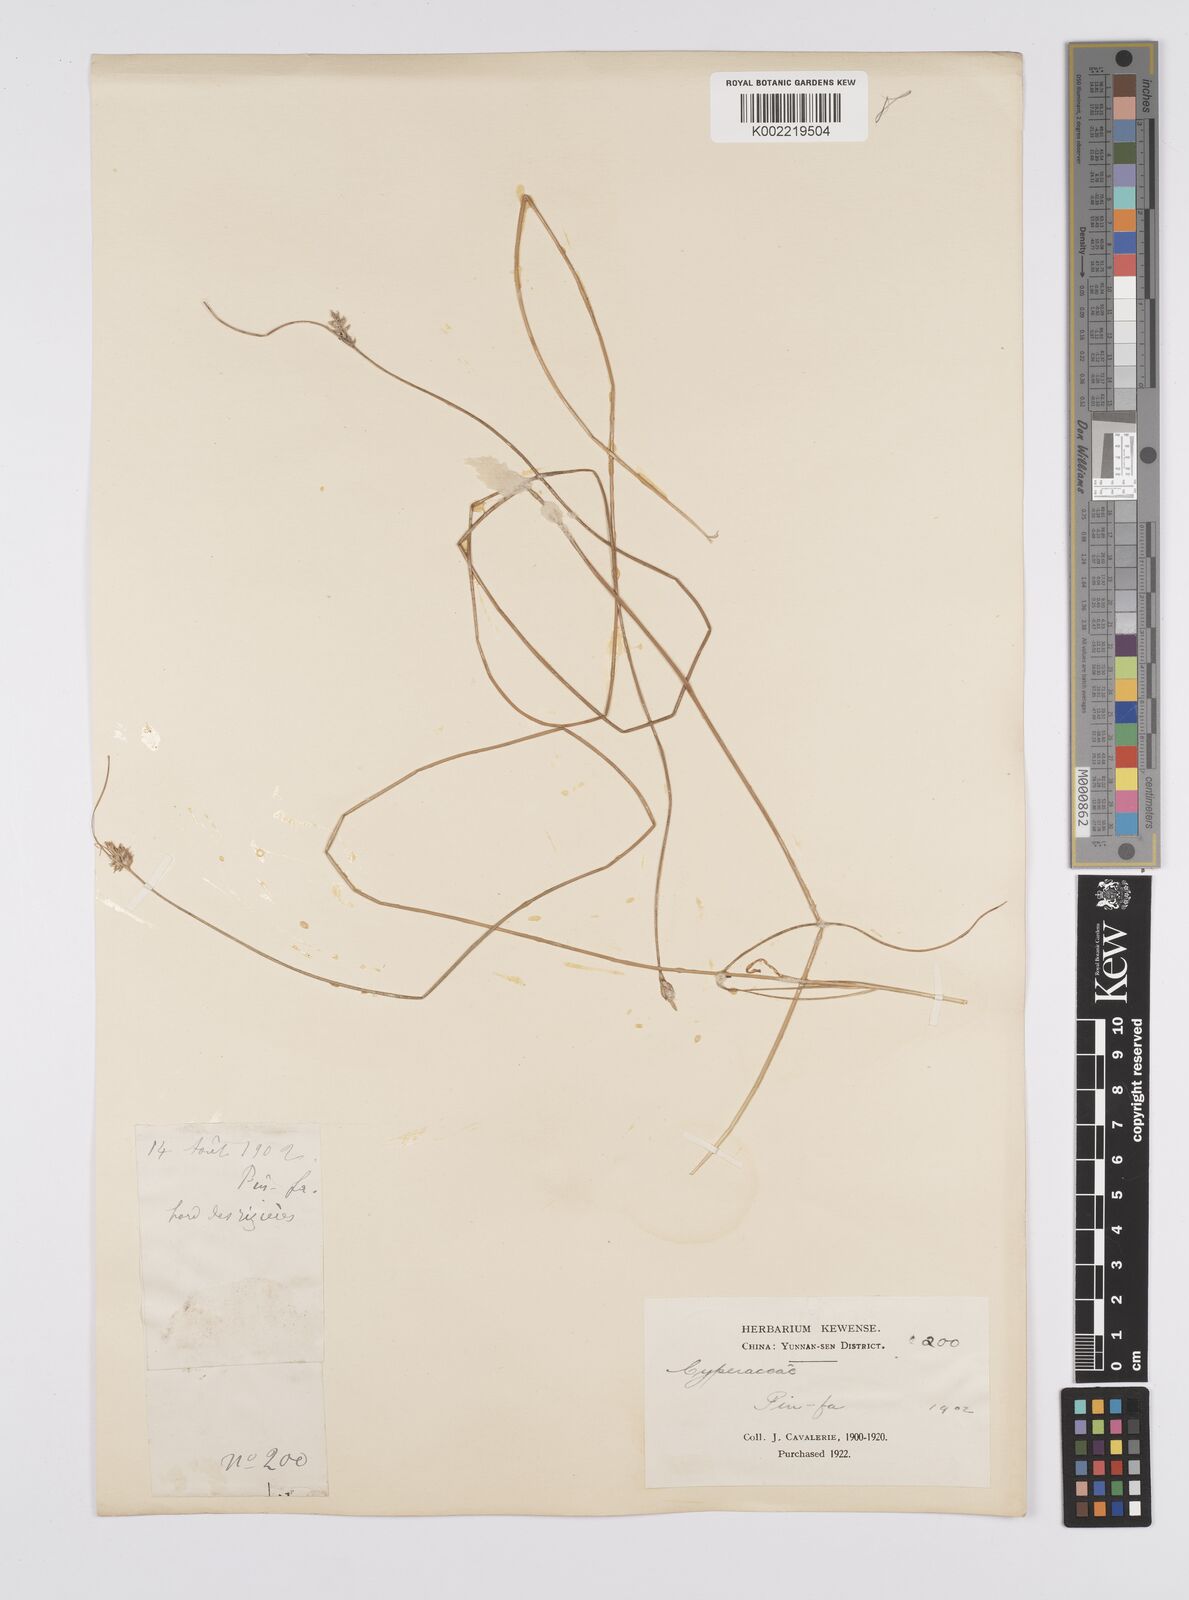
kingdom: Plantae
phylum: Tracheophyta
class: Liliopsida
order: Poales
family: Cyperaceae
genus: Carex
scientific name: Carex nubigena
